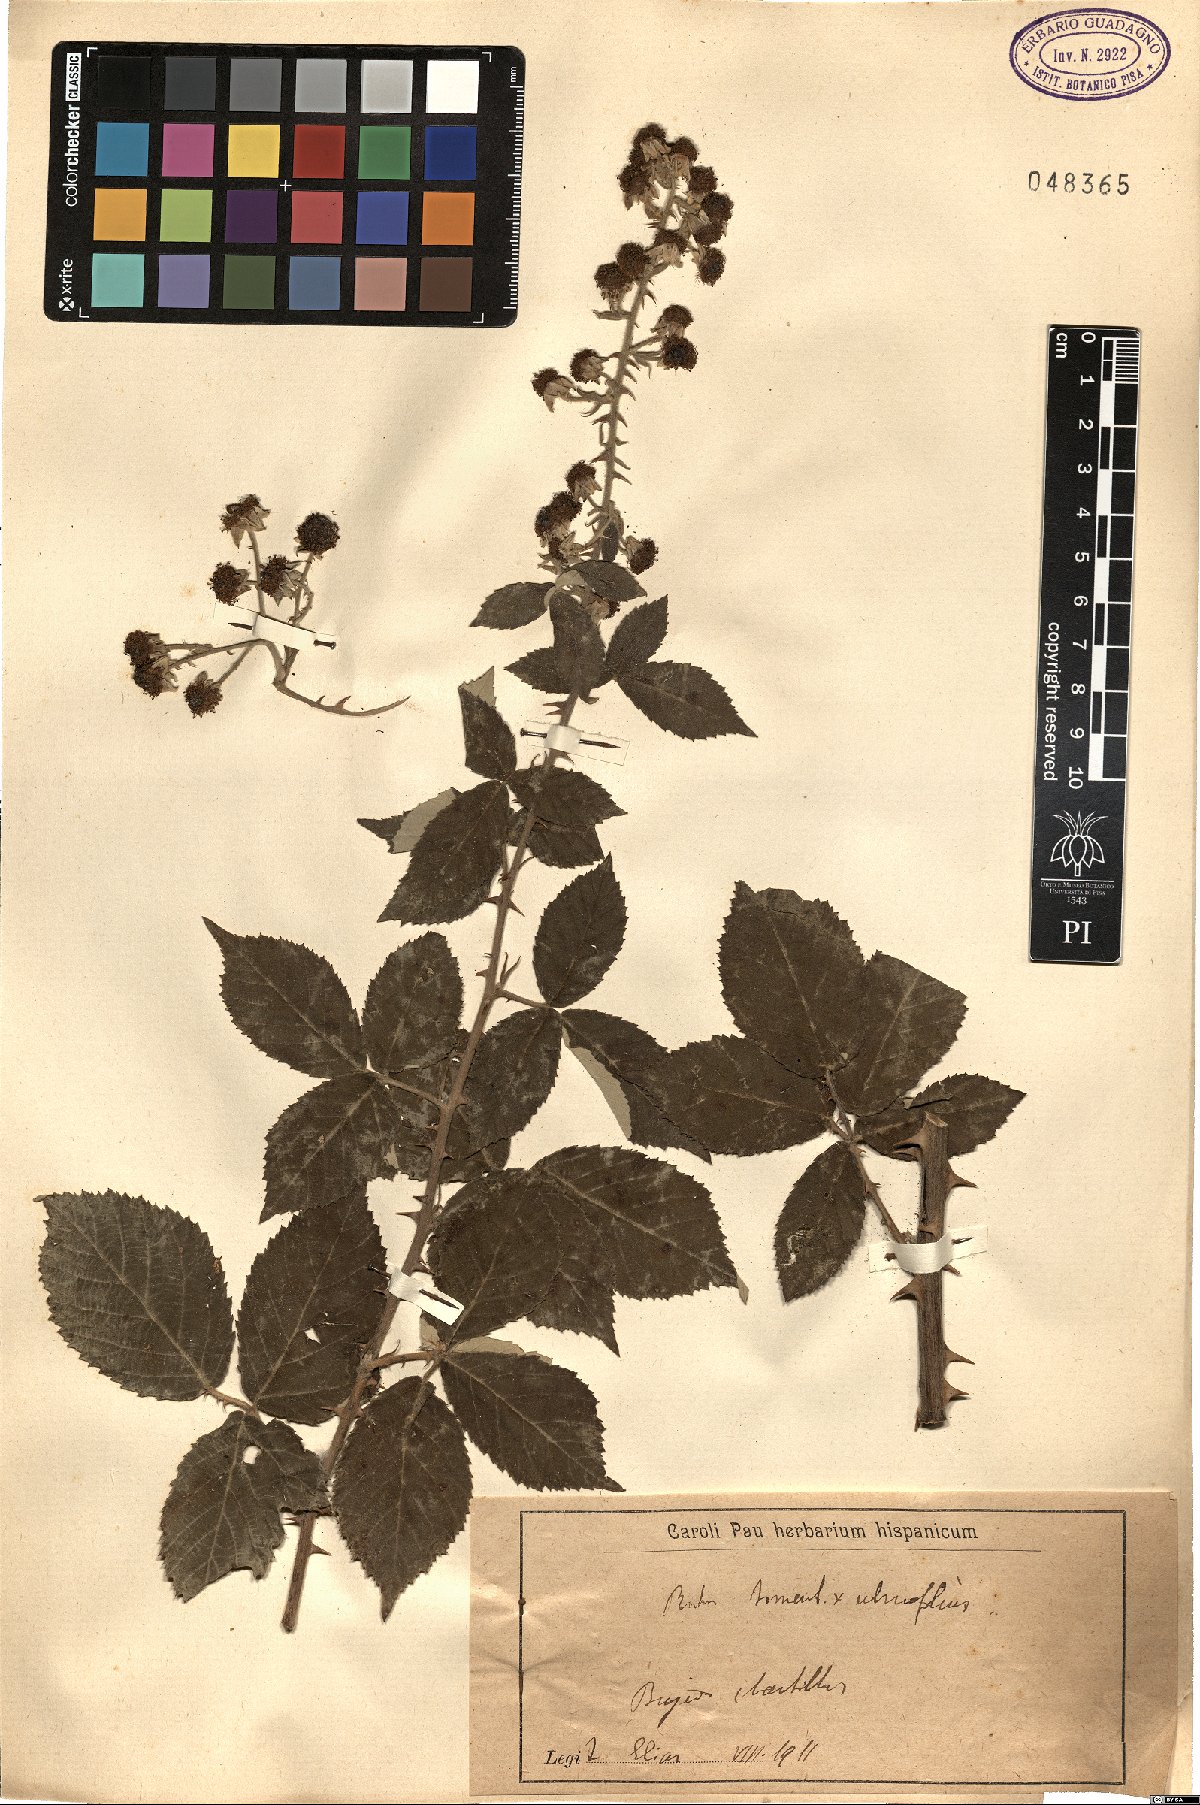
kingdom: Plantae
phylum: Tracheophyta
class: Magnoliopsida
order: Rosales
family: Rosaceae
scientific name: Rosaceae
